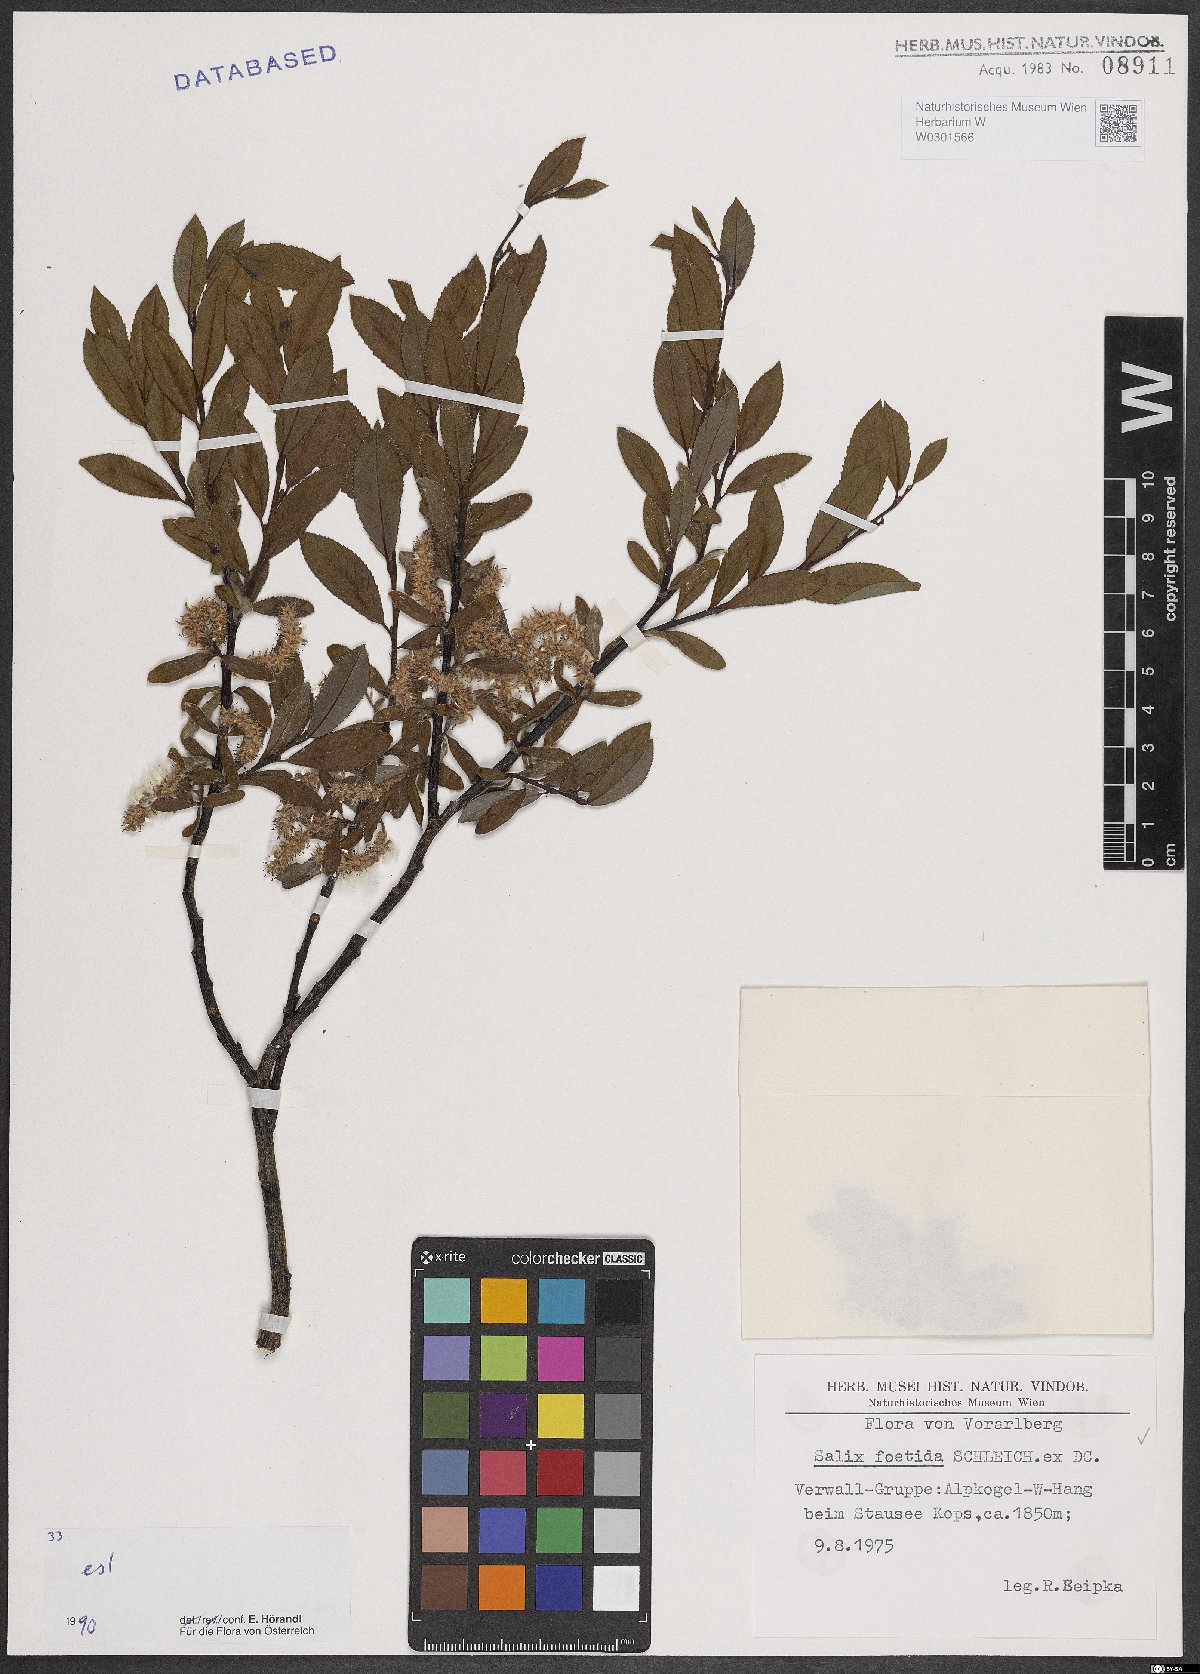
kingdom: Plantae
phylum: Tracheophyta
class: Magnoliopsida
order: Malpighiales
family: Salicaceae
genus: Salix
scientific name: Salix foetida
